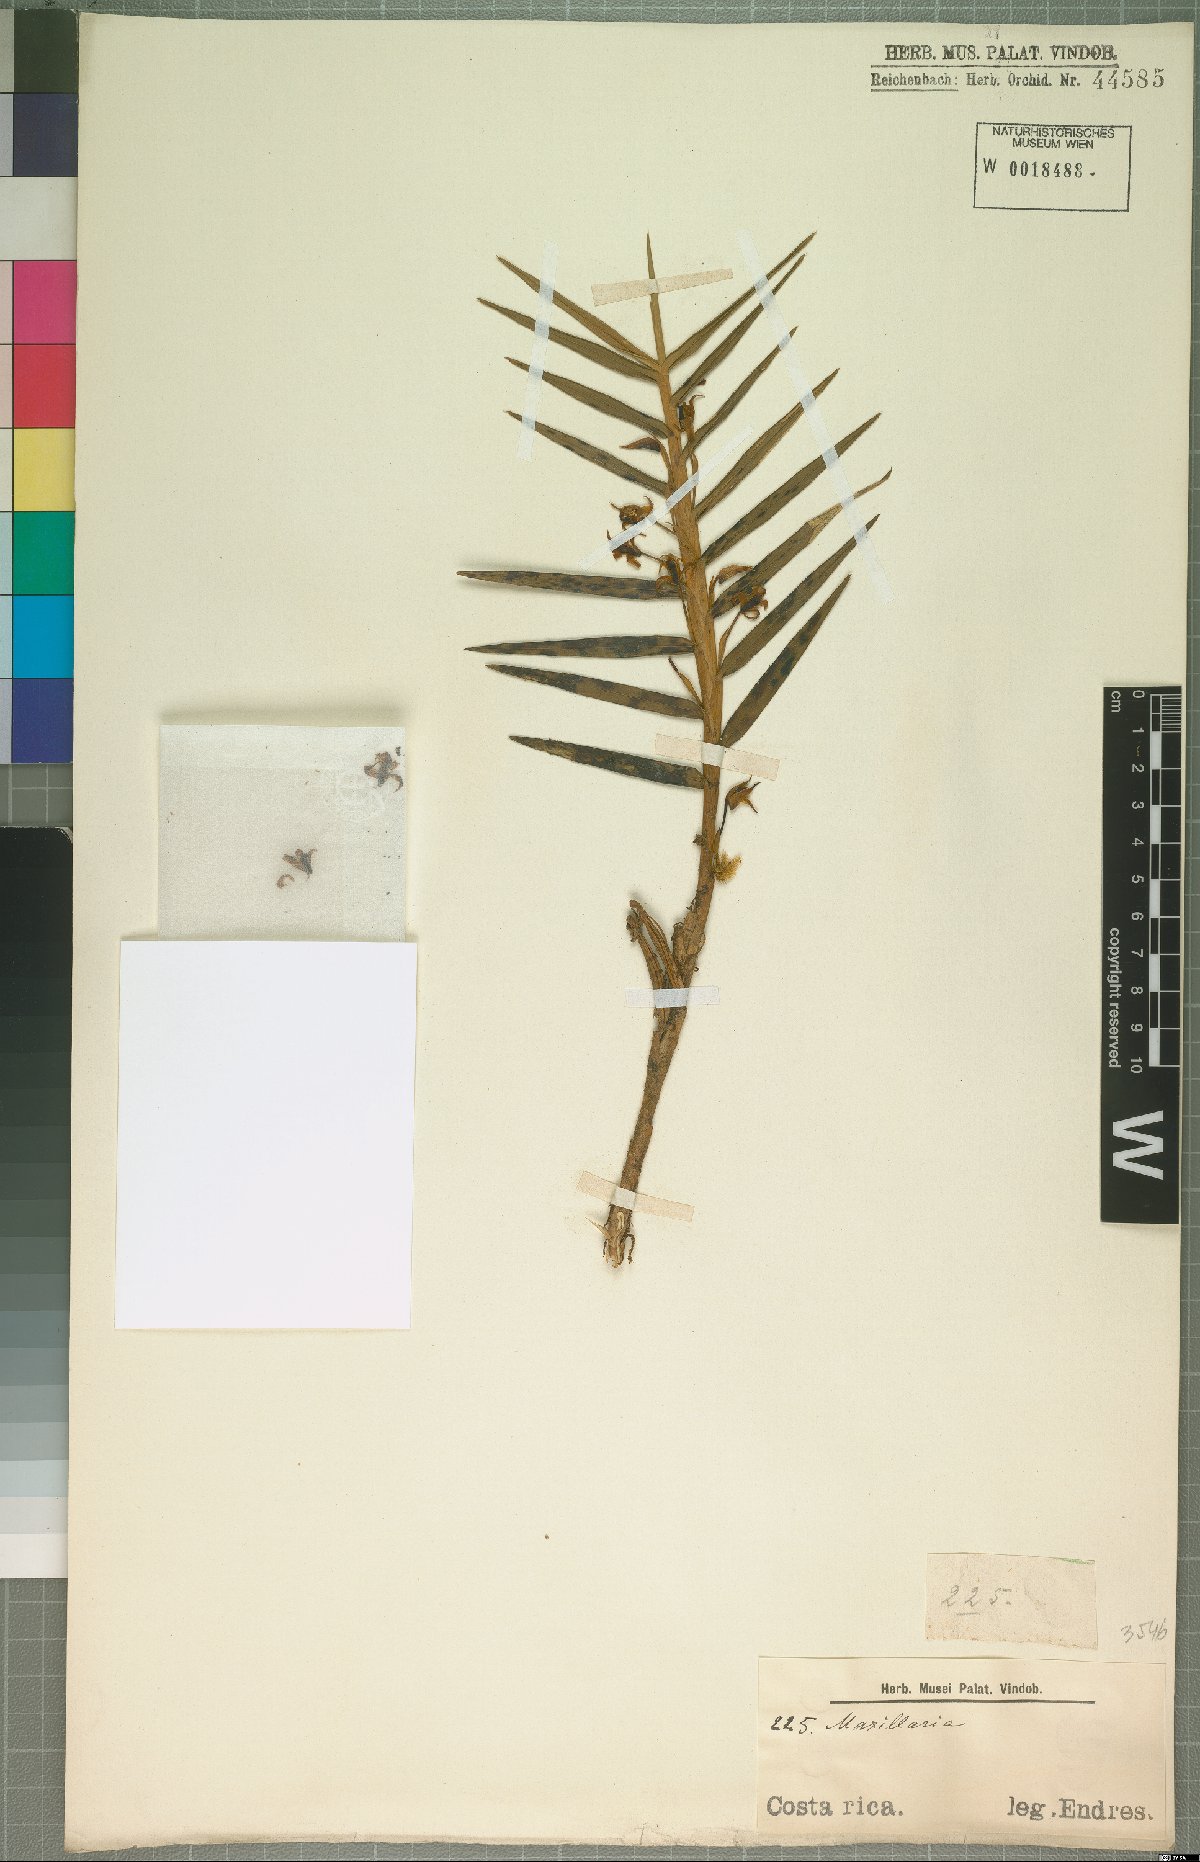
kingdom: Plantae
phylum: Tracheophyta
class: Liliopsida
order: Asparagales
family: Orchidaceae
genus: Maxillaria
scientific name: Maxillaria
